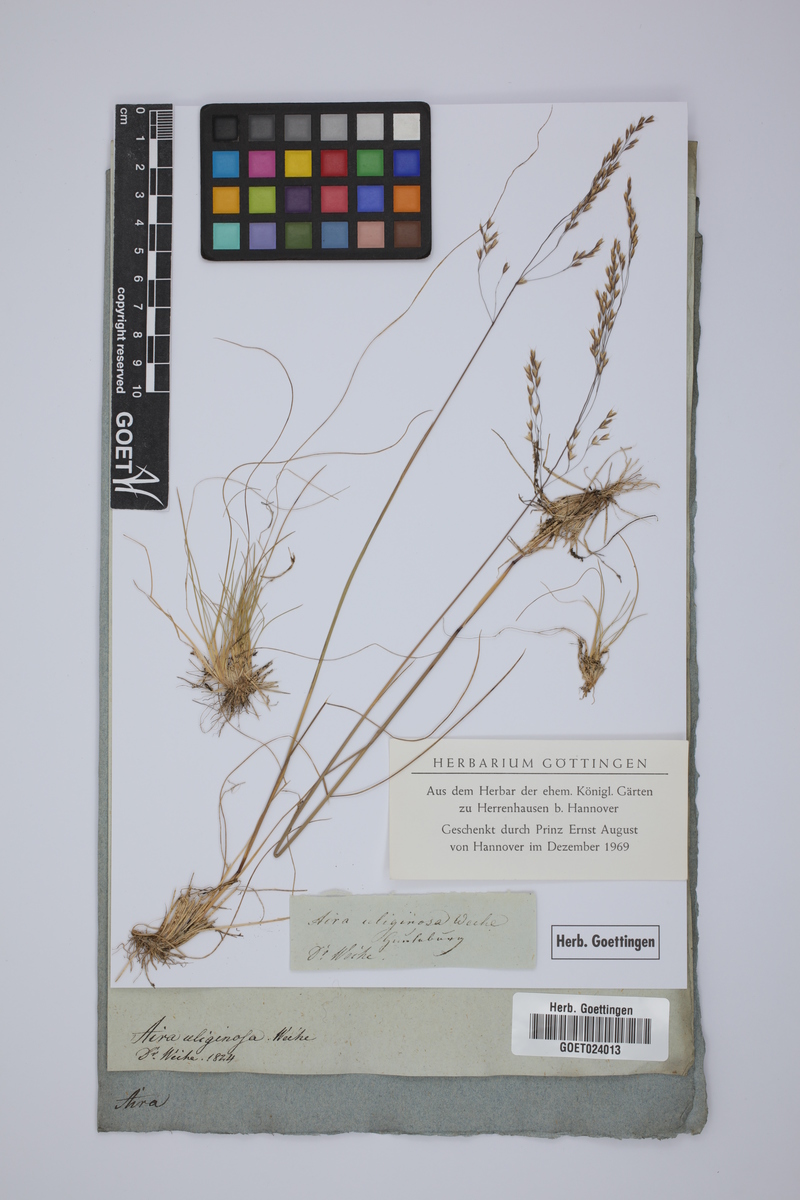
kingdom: Plantae
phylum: Tracheophyta
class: Liliopsida
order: Poales
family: Poaceae
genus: Deschampsia
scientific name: Deschampsia setacea
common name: Bog hair-grass
